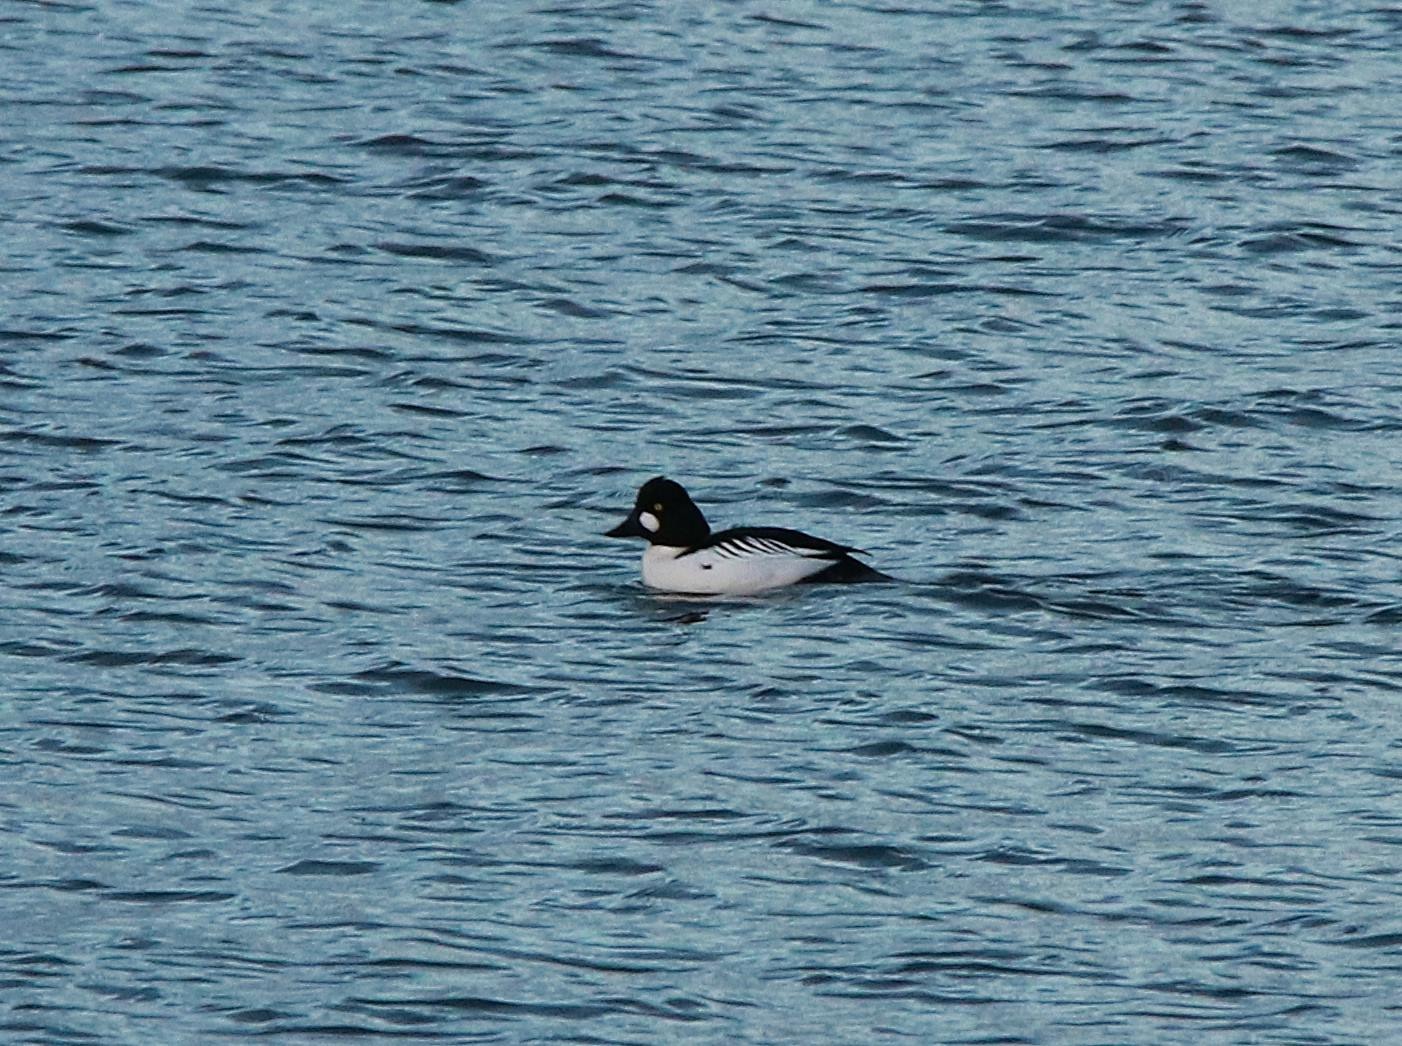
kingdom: Animalia
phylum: Chordata
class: Aves
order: Anseriformes
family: Anatidae
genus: Bucephala
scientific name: Bucephala clangula
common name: Hvinand
